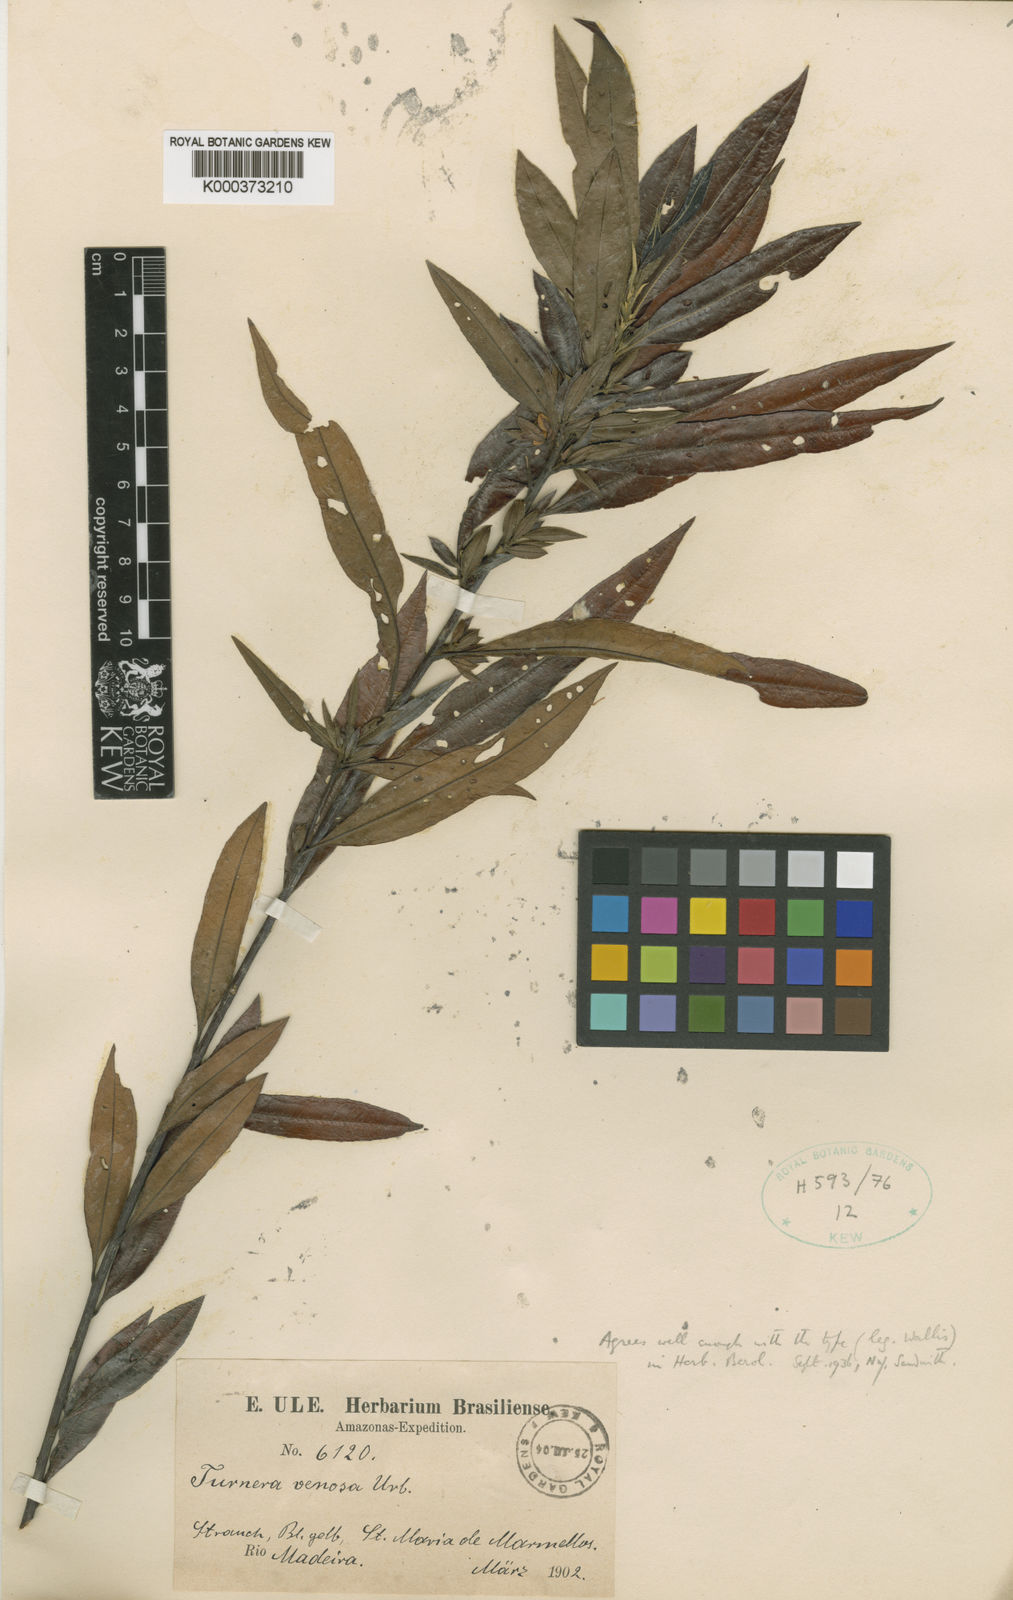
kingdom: Plantae
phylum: Tracheophyta
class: Magnoliopsida
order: Malpighiales
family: Turneraceae
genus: Turnera
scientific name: Turnera venosa
